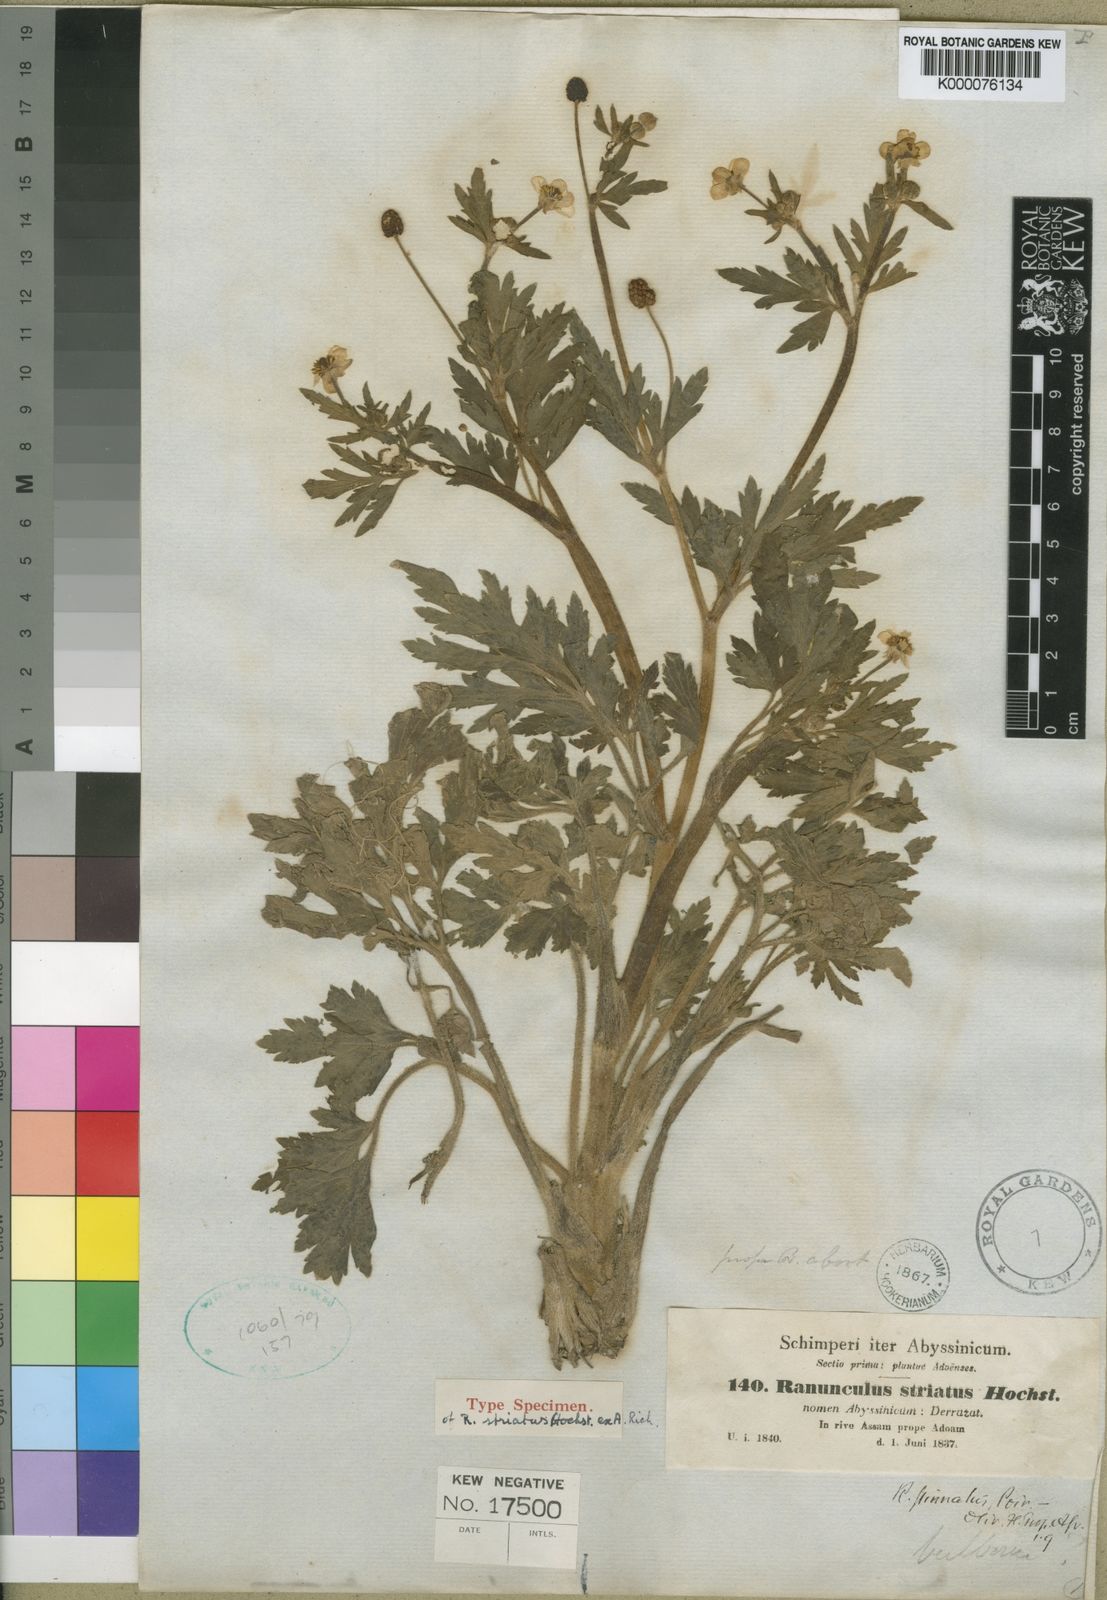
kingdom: Plantae
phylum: Tracheophyta
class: Magnoliopsida
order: Ranunculales
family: Ranunculaceae
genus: Ranunculus
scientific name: Ranunculus multifidus
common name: Wild buttercup
